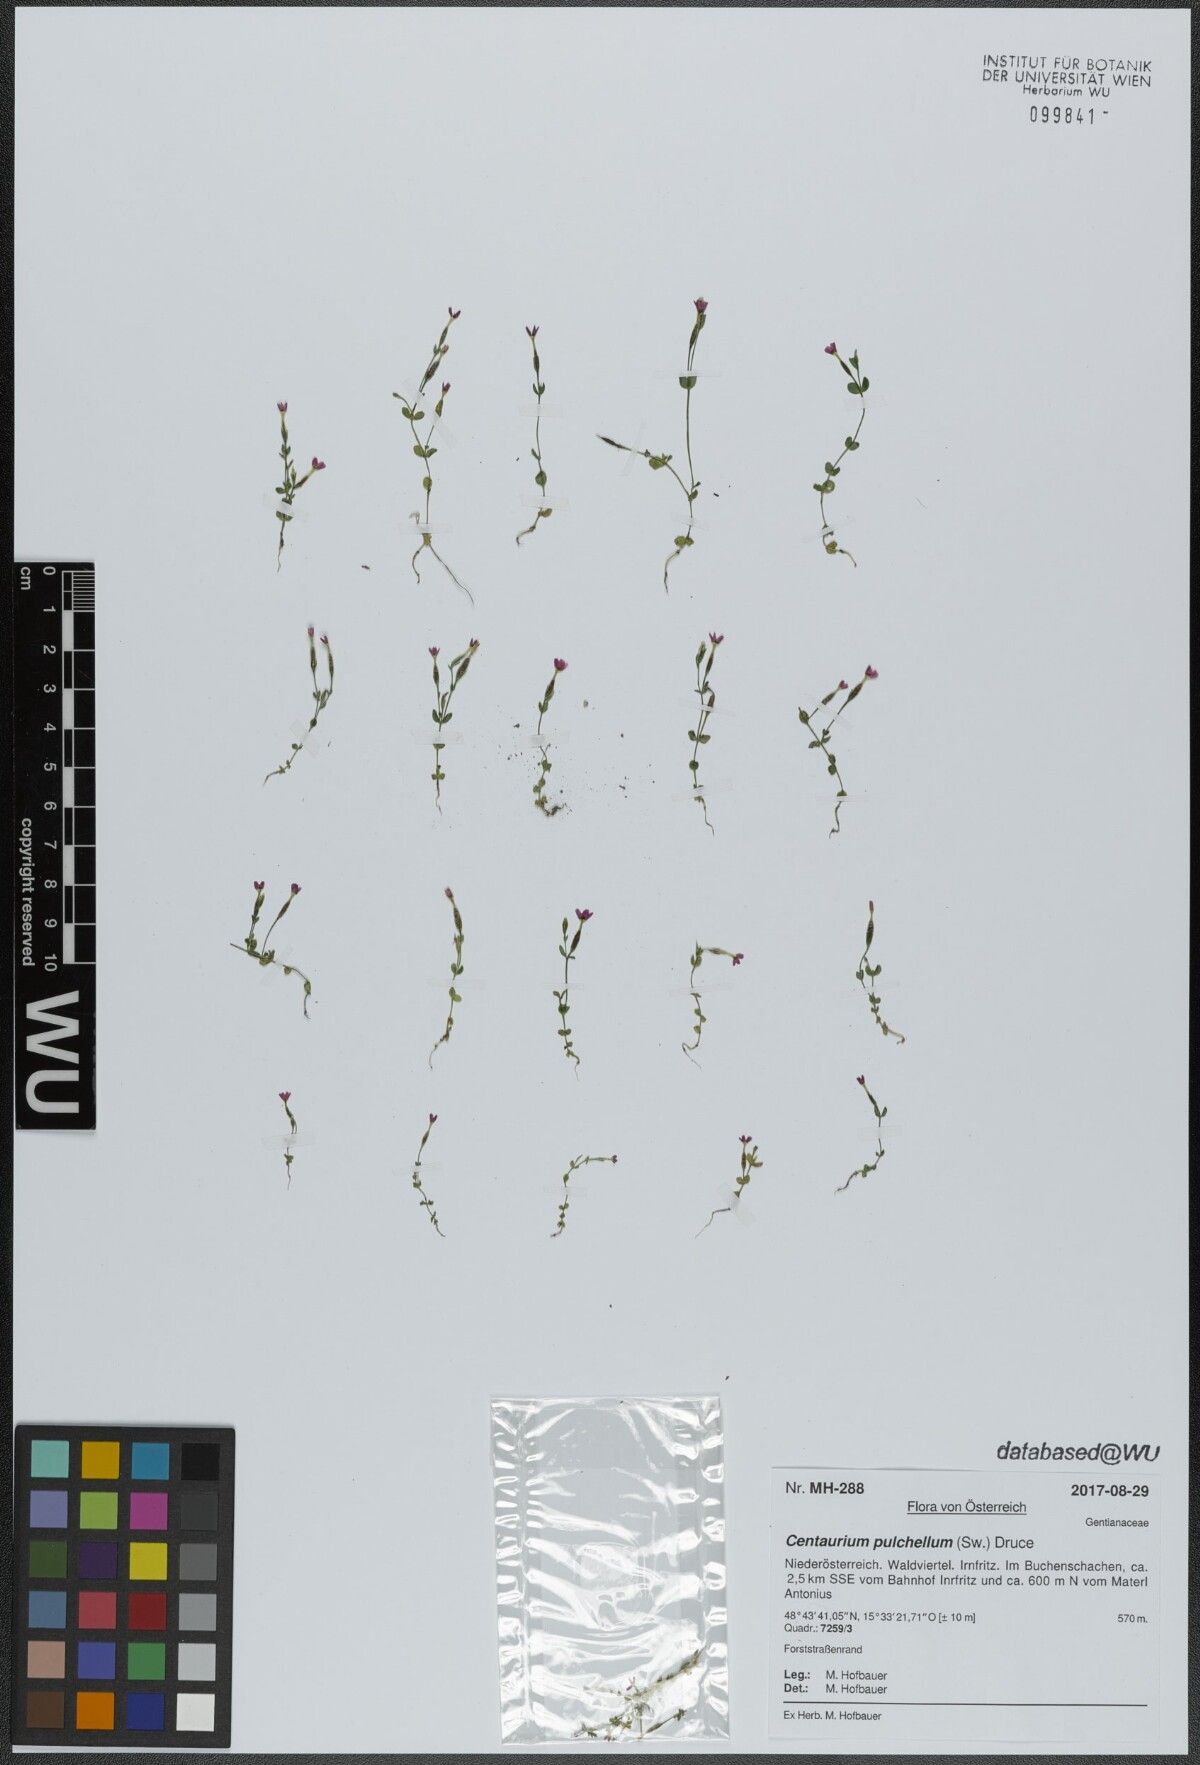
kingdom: Plantae
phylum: Tracheophyta
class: Magnoliopsida
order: Gentianales
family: Gentianaceae
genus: Centaurium
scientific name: Centaurium pulchellum
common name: Lesser centaury
